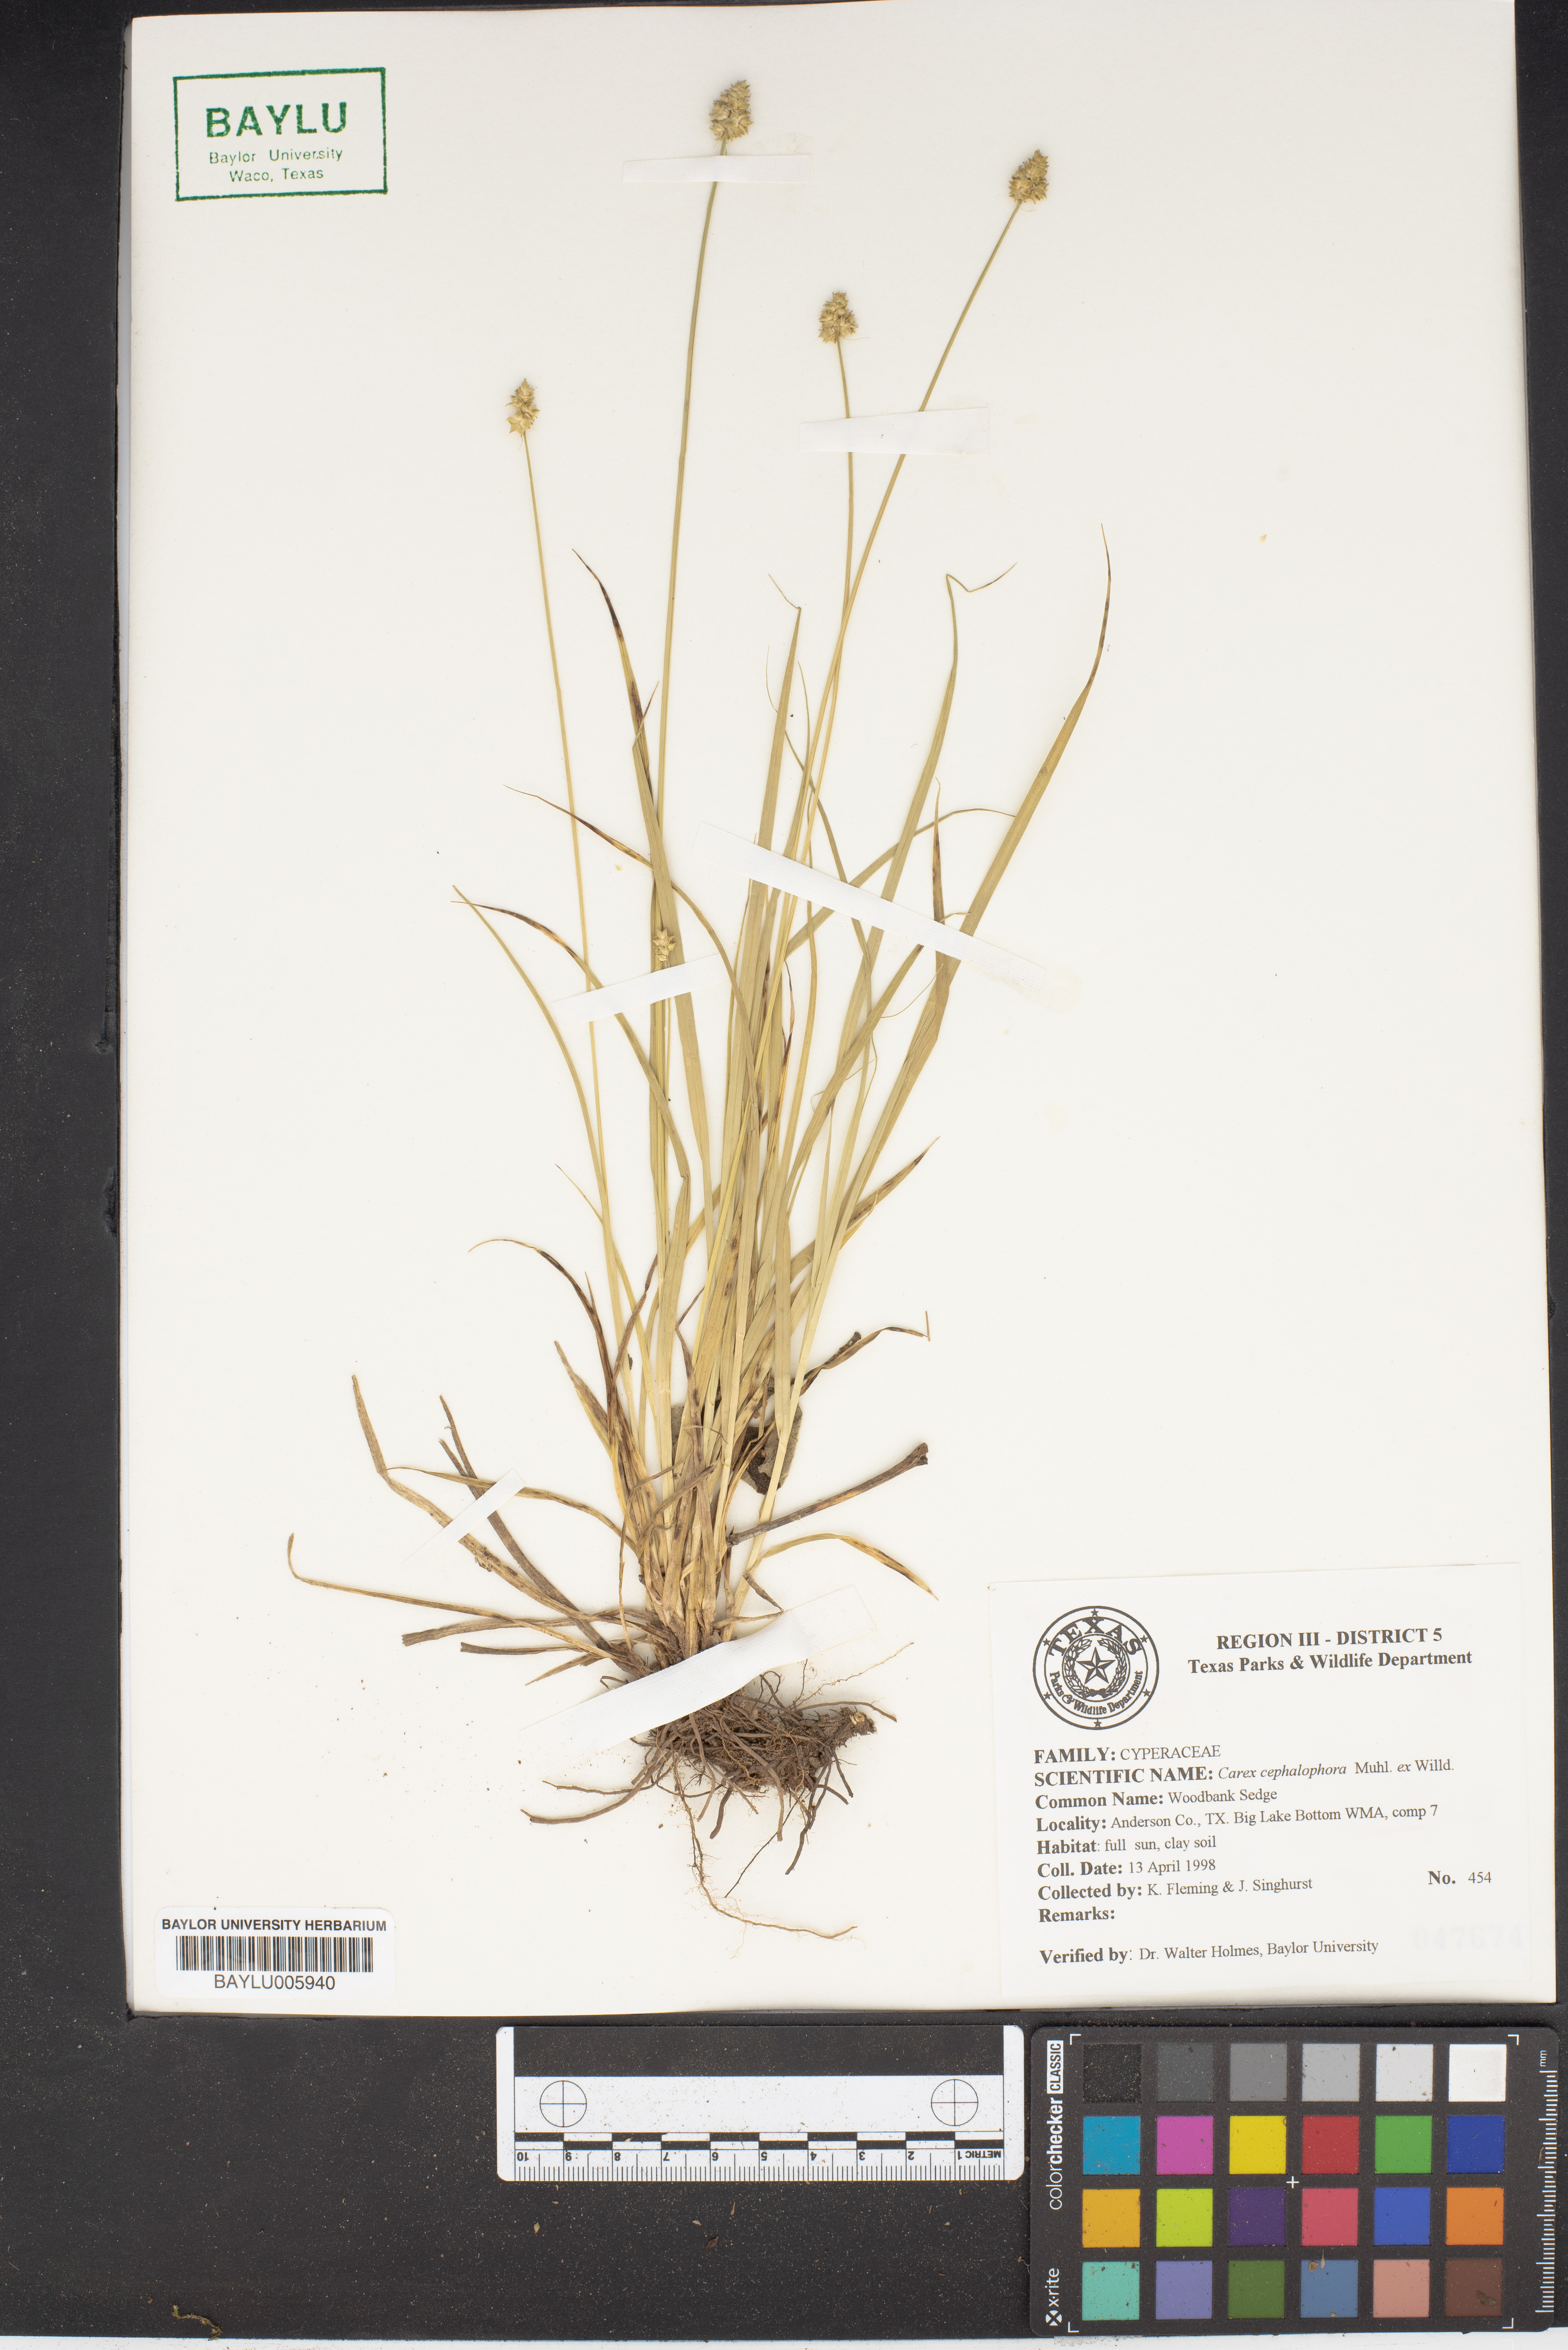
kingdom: Plantae
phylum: Tracheophyta
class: Liliopsida
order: Poales
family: Cyperaceae
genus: Carex
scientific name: Carex cephalophora
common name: Oval-headed sedge
